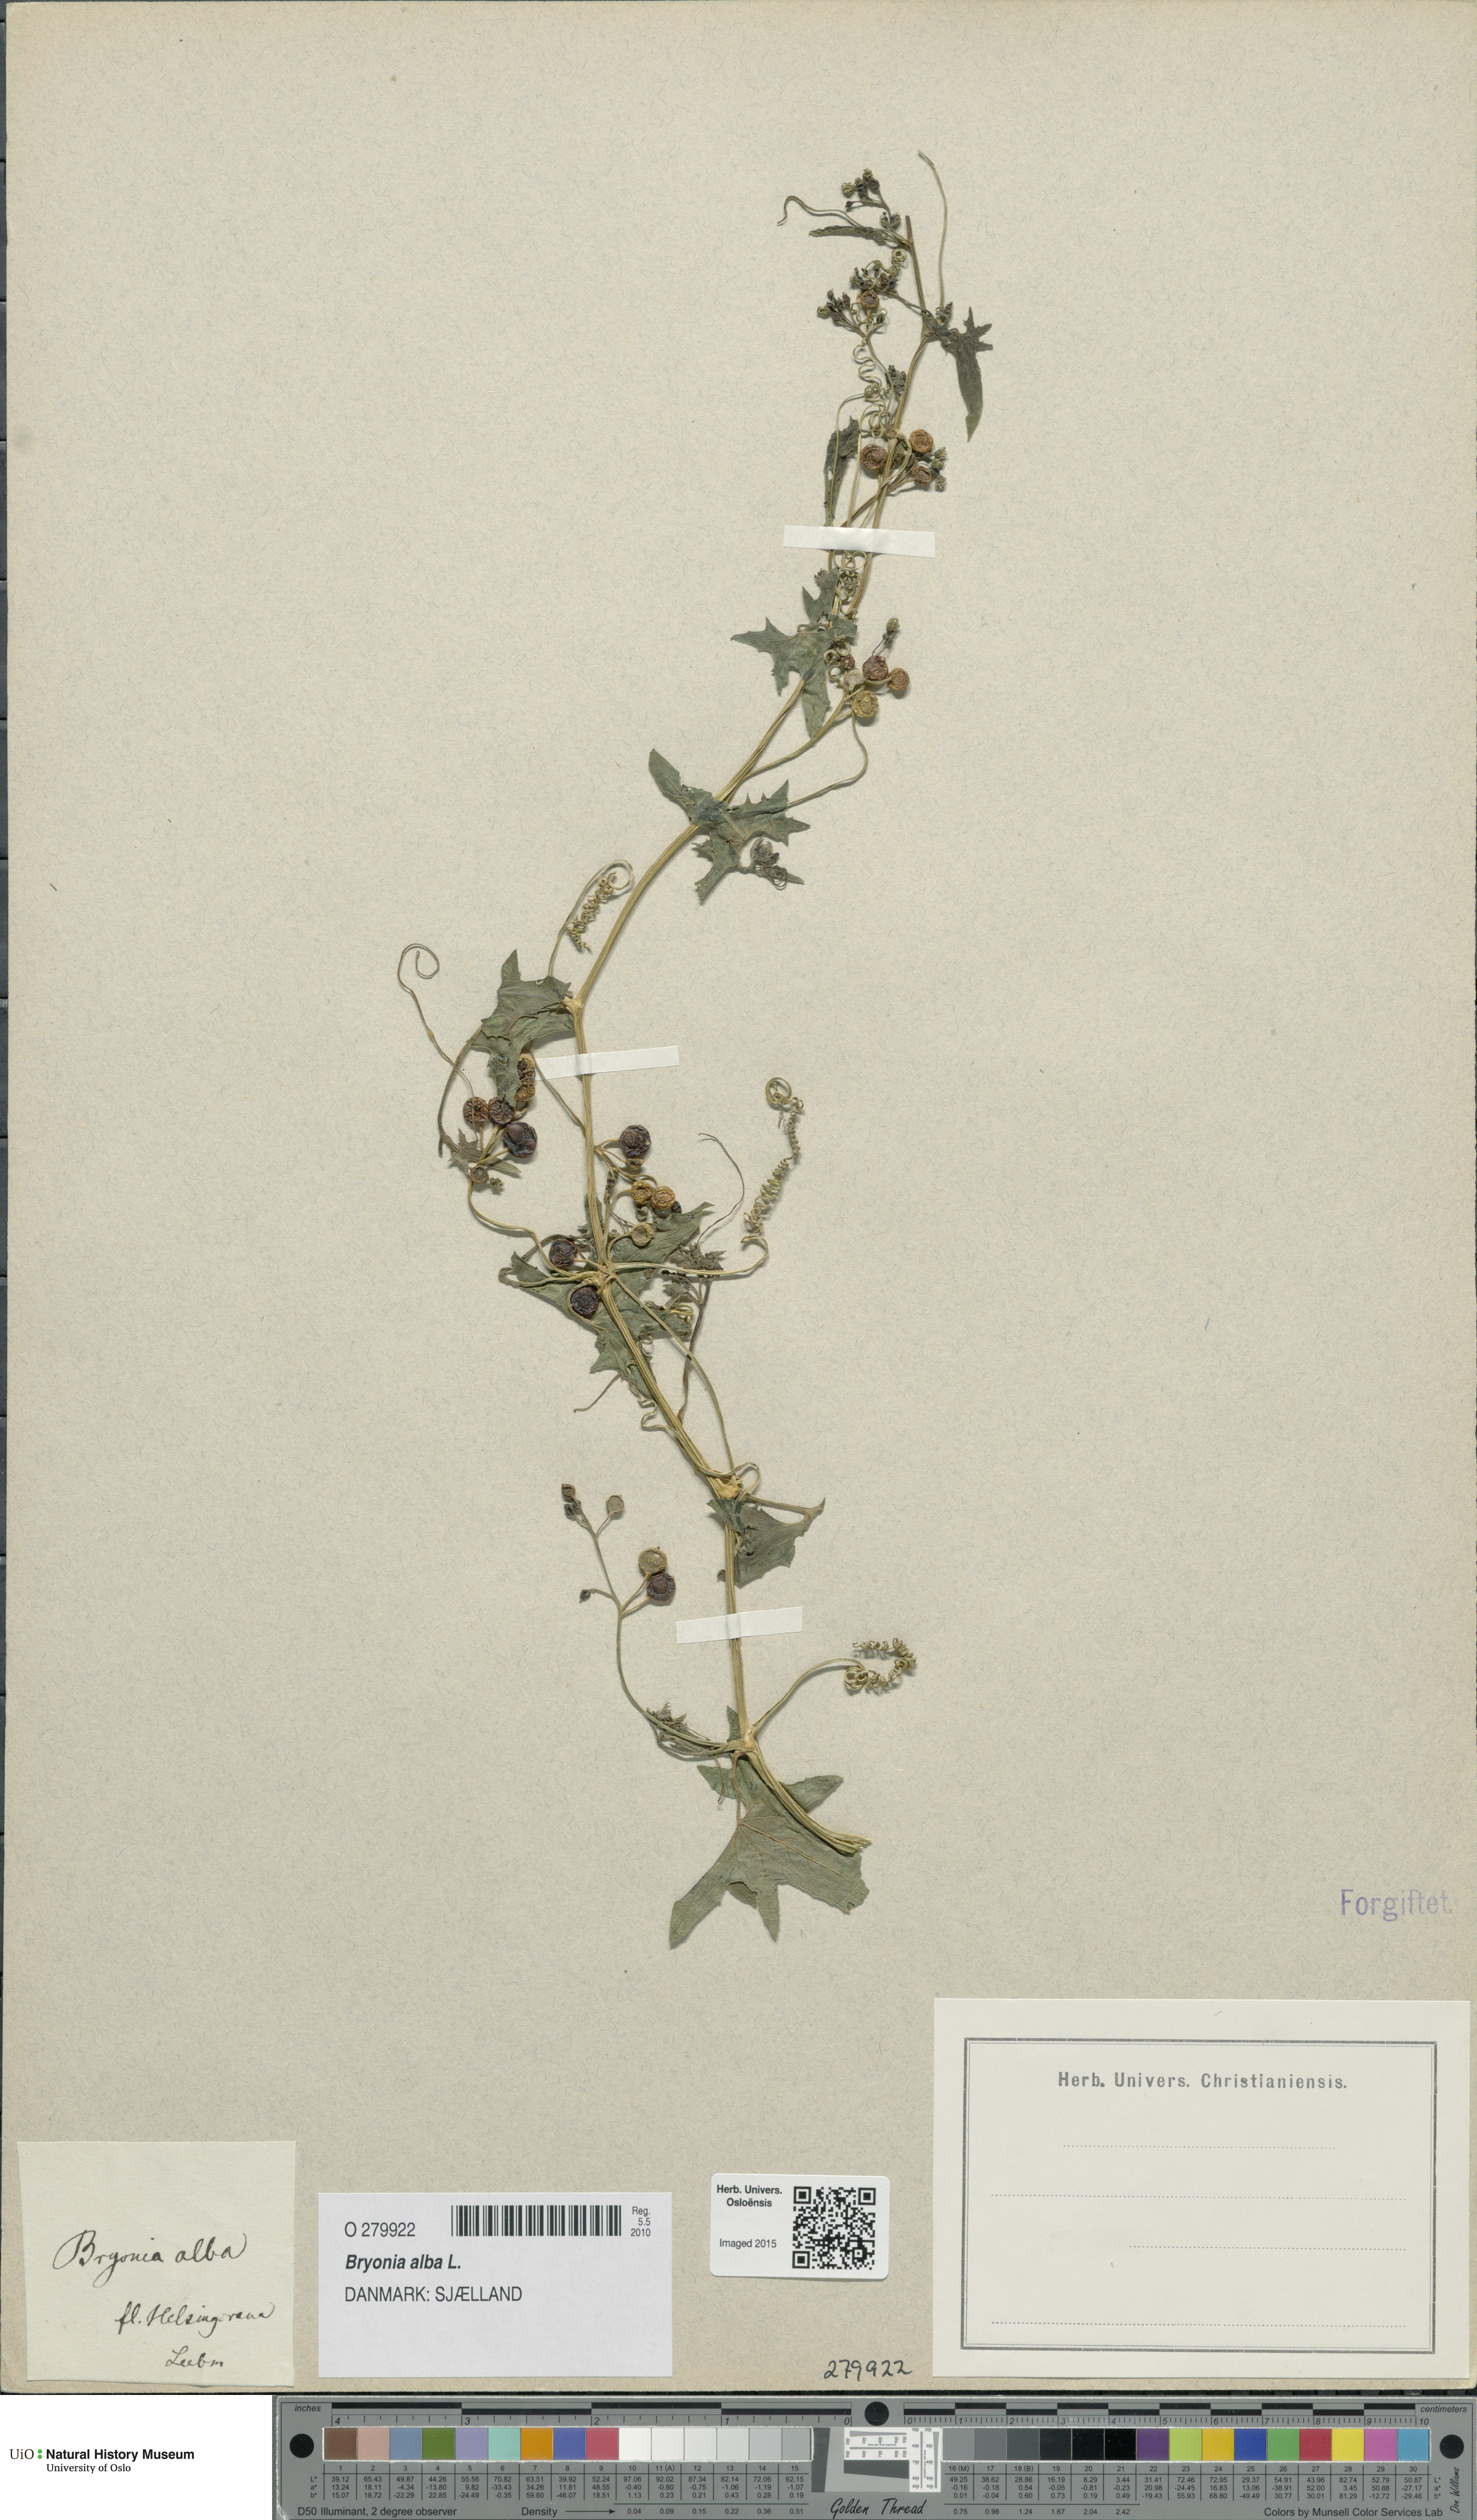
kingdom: Plantae
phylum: Tracheophyta
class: Magnoliopsida
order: Cucurbitales
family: Cucurbitaceae
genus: Bryonia
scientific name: Bryonia alba
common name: White bryony
